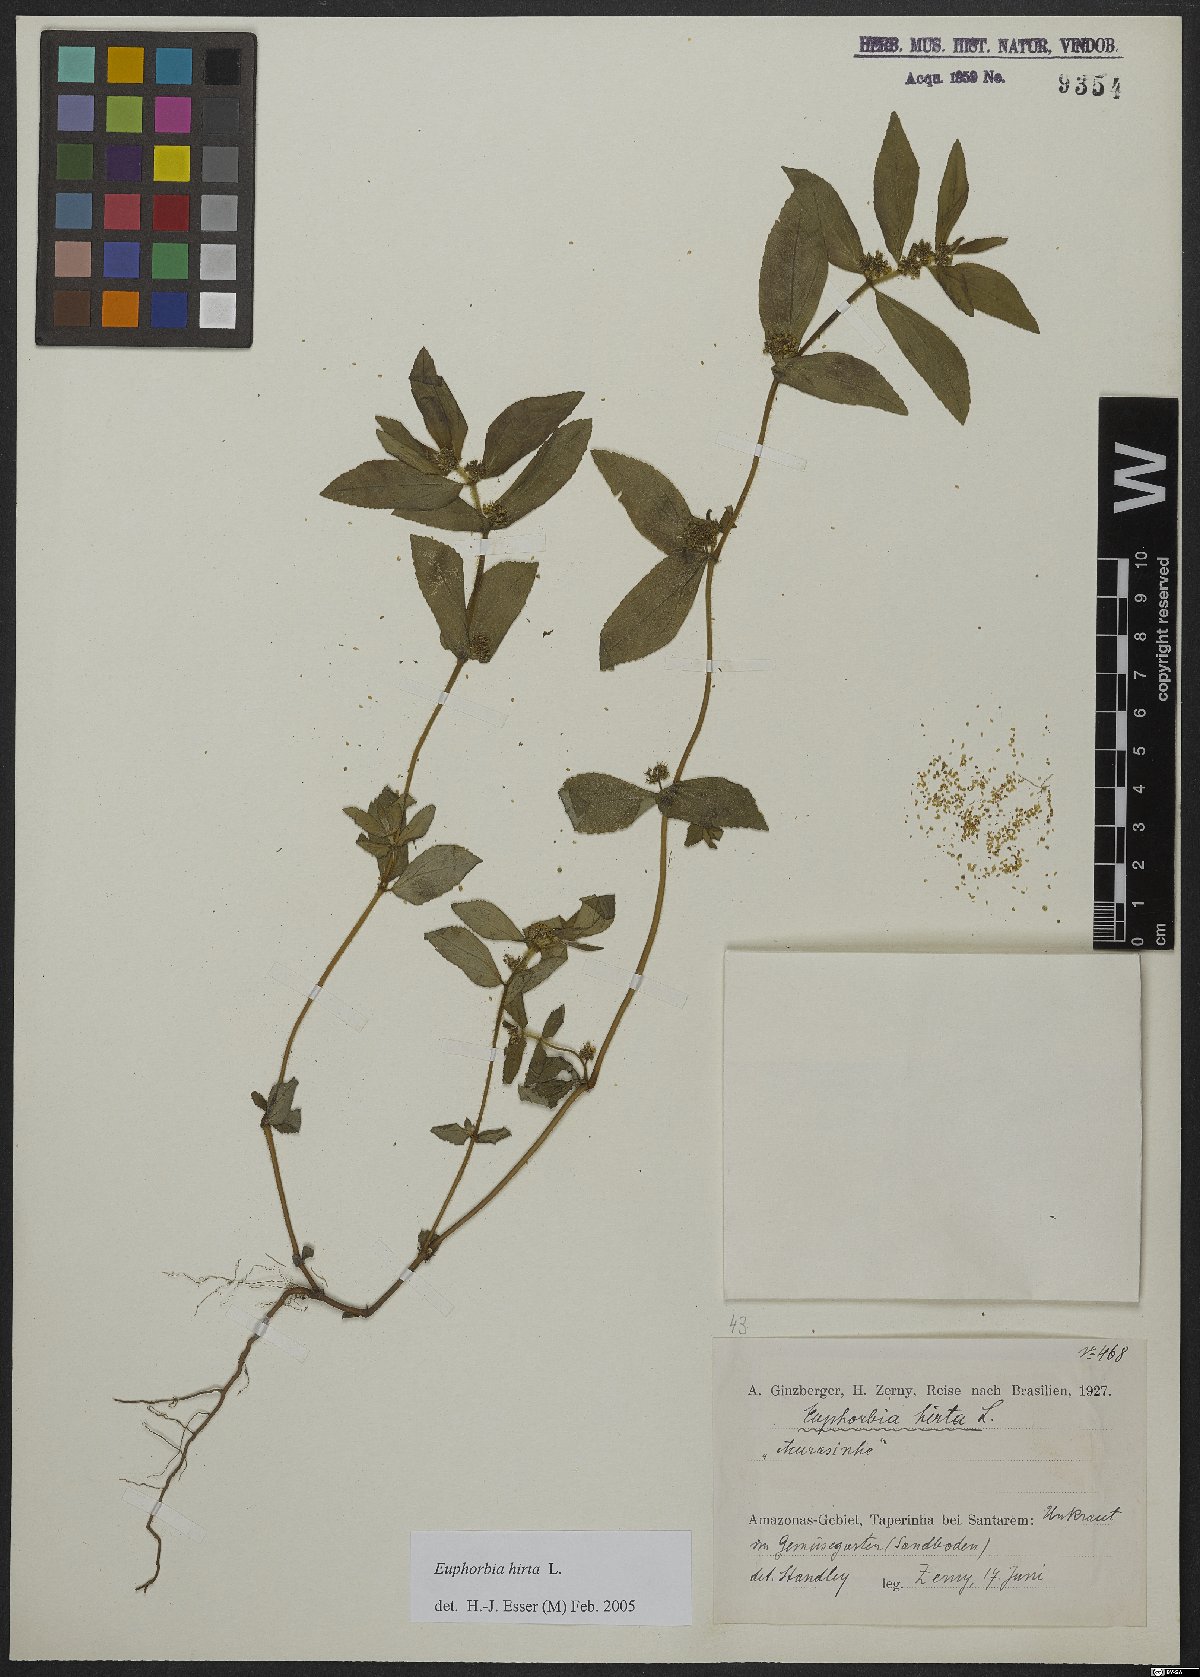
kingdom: Plantae
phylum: Tracheophyta
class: Magnoliopsida
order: Malpighiales
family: Euphorbiaceae
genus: Euphorbia
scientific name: Euphorbia hirta
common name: Pillpod sandmat
